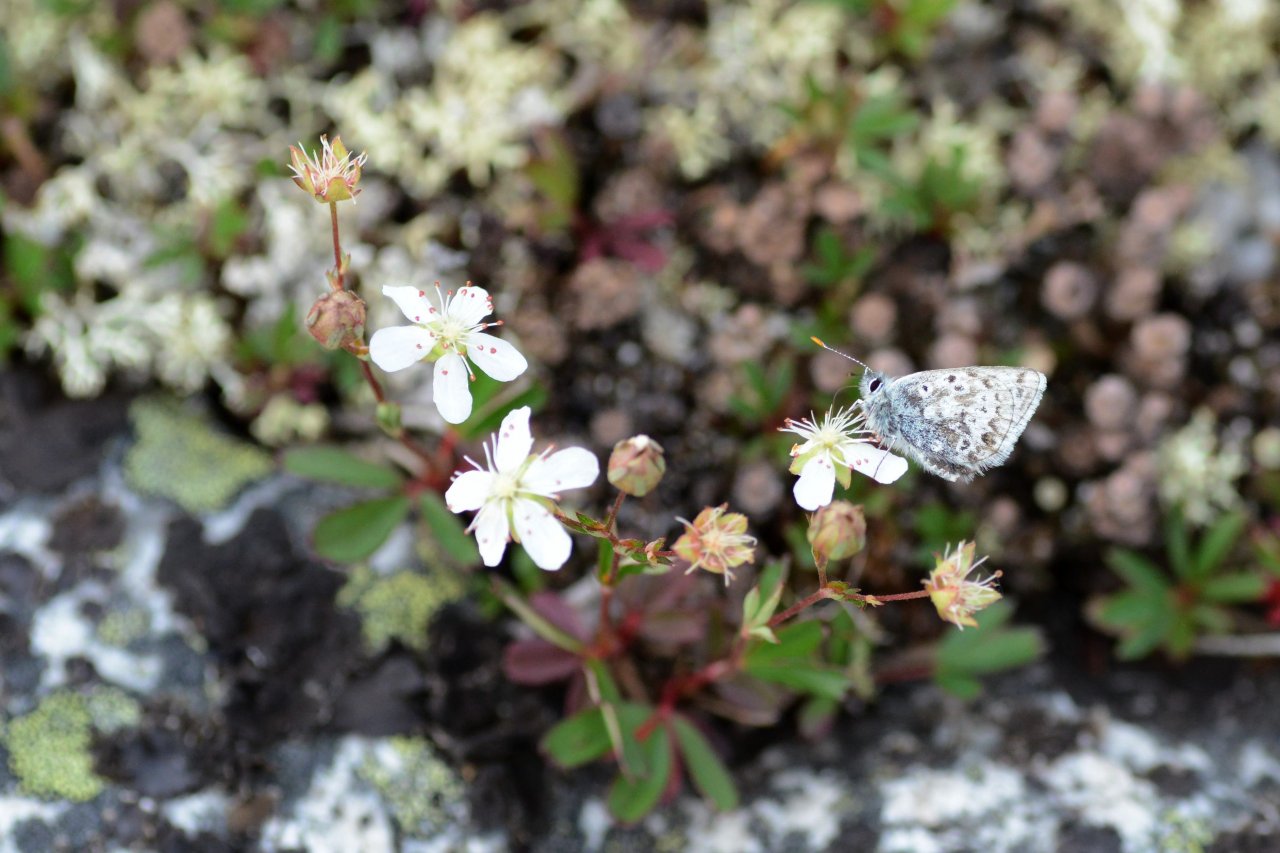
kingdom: Animalia
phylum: Arthropoda
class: Insecta
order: Lepidoptera
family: Lycaenidae
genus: Agriades
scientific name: Agriades glandon
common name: Arctic Blue
